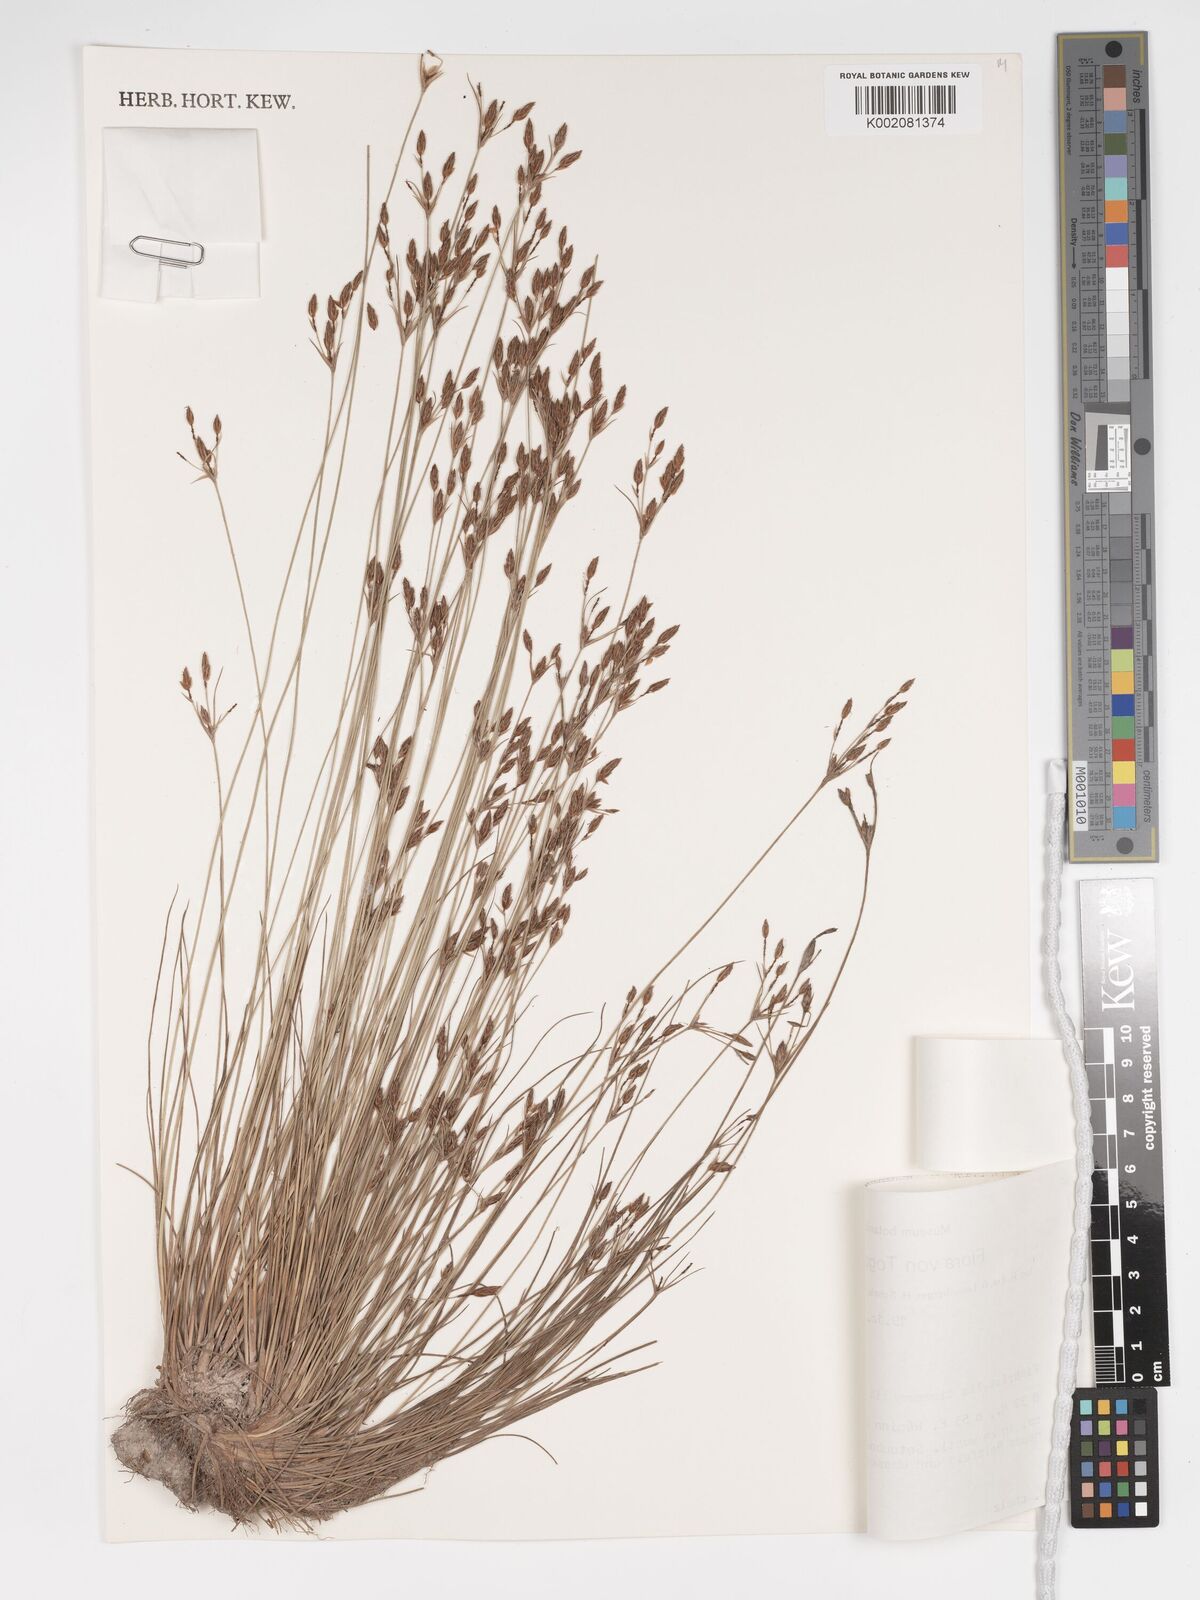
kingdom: Plantae
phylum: Tracheophyta
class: Liliopsida
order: Poales
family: Cyperaceae
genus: Bulbostylis
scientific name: Bulbostylis viridecarinata
